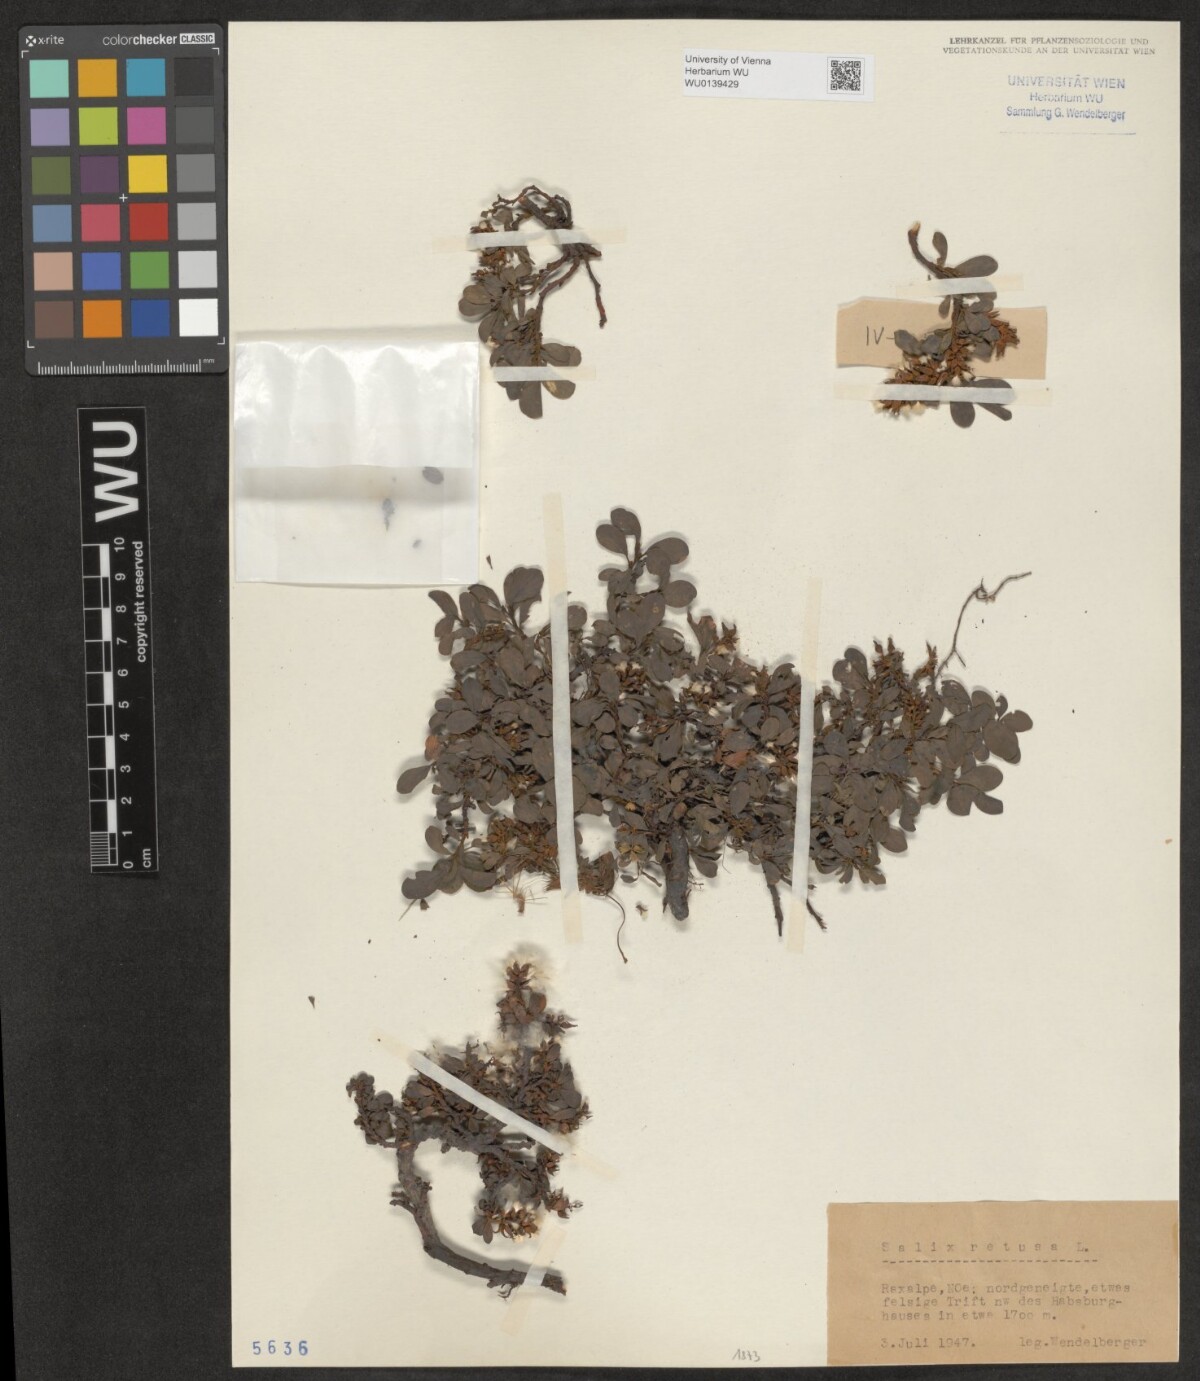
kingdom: Plantae
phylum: Tracheophyta
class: Magnoliopsida
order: Malpighiales
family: Salicaceae
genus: Salix
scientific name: Salix retusa
